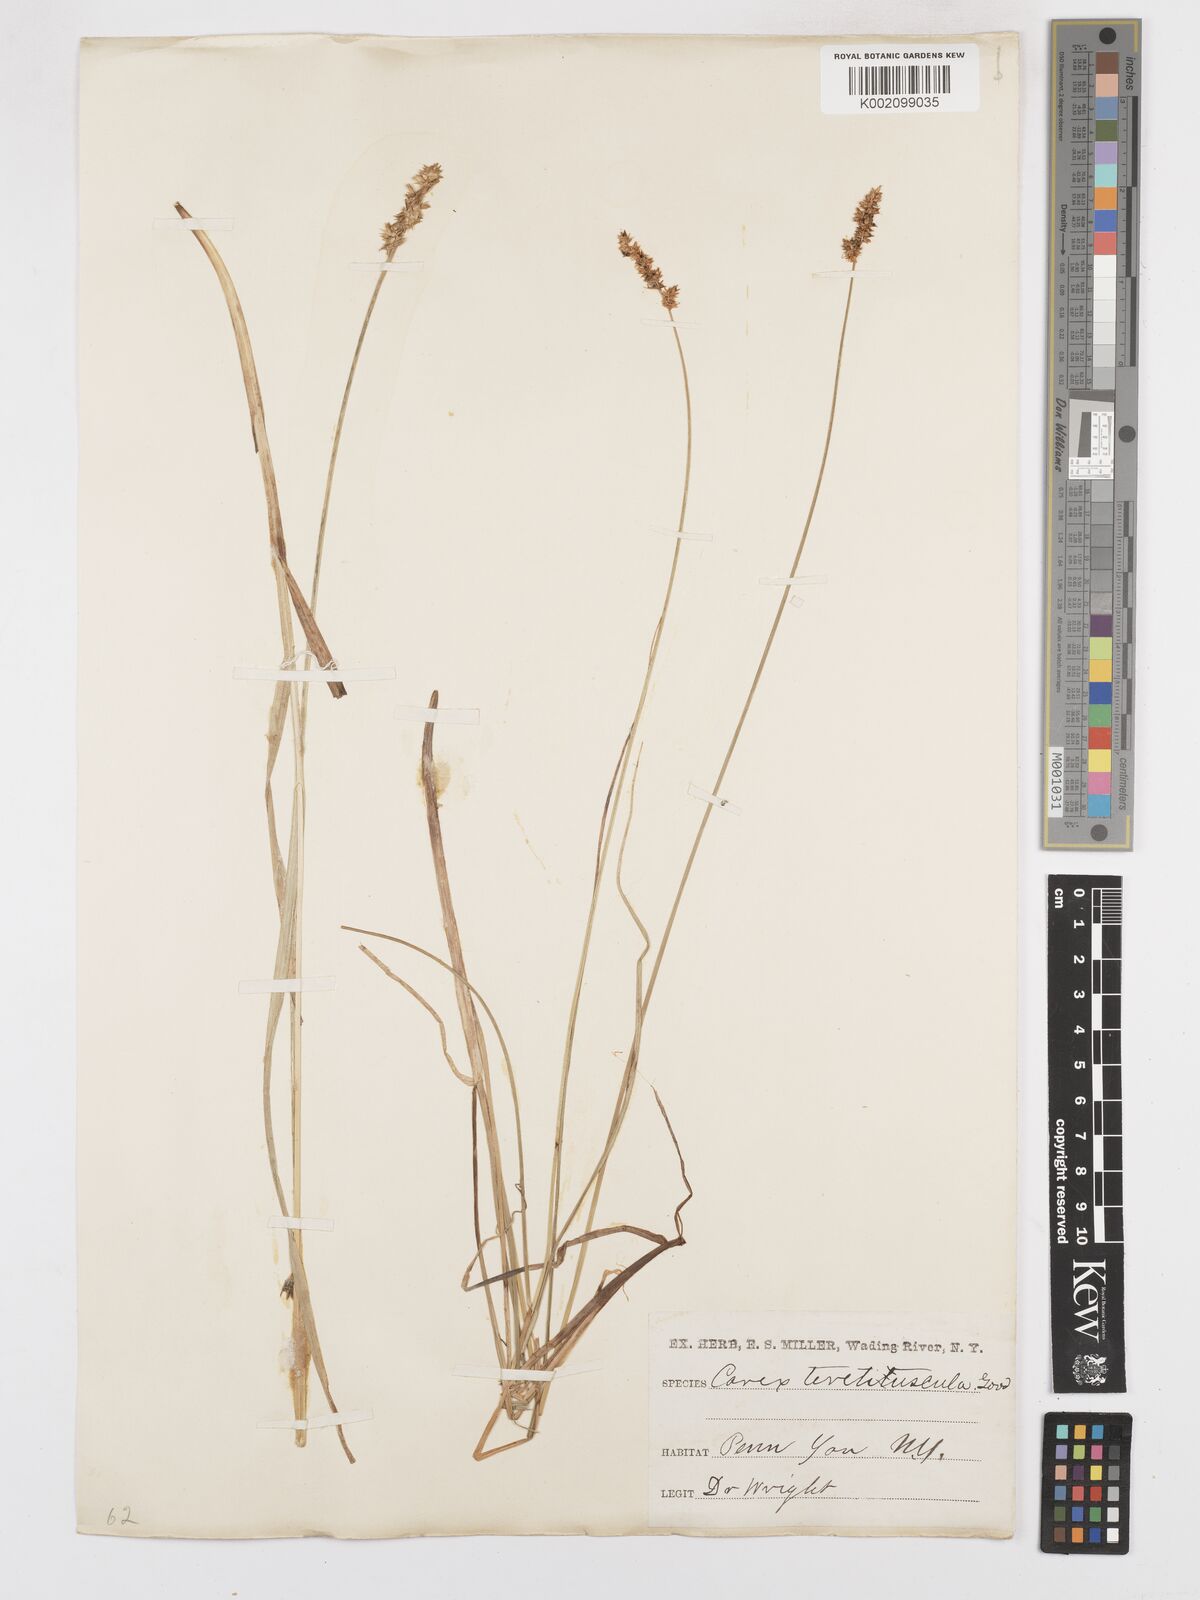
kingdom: Plantae
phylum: Tracheophyta
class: Liliopsida
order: Poales
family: Cyperaceae
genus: Carex
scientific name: Carex diandra
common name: Lesser tussock-sedge
